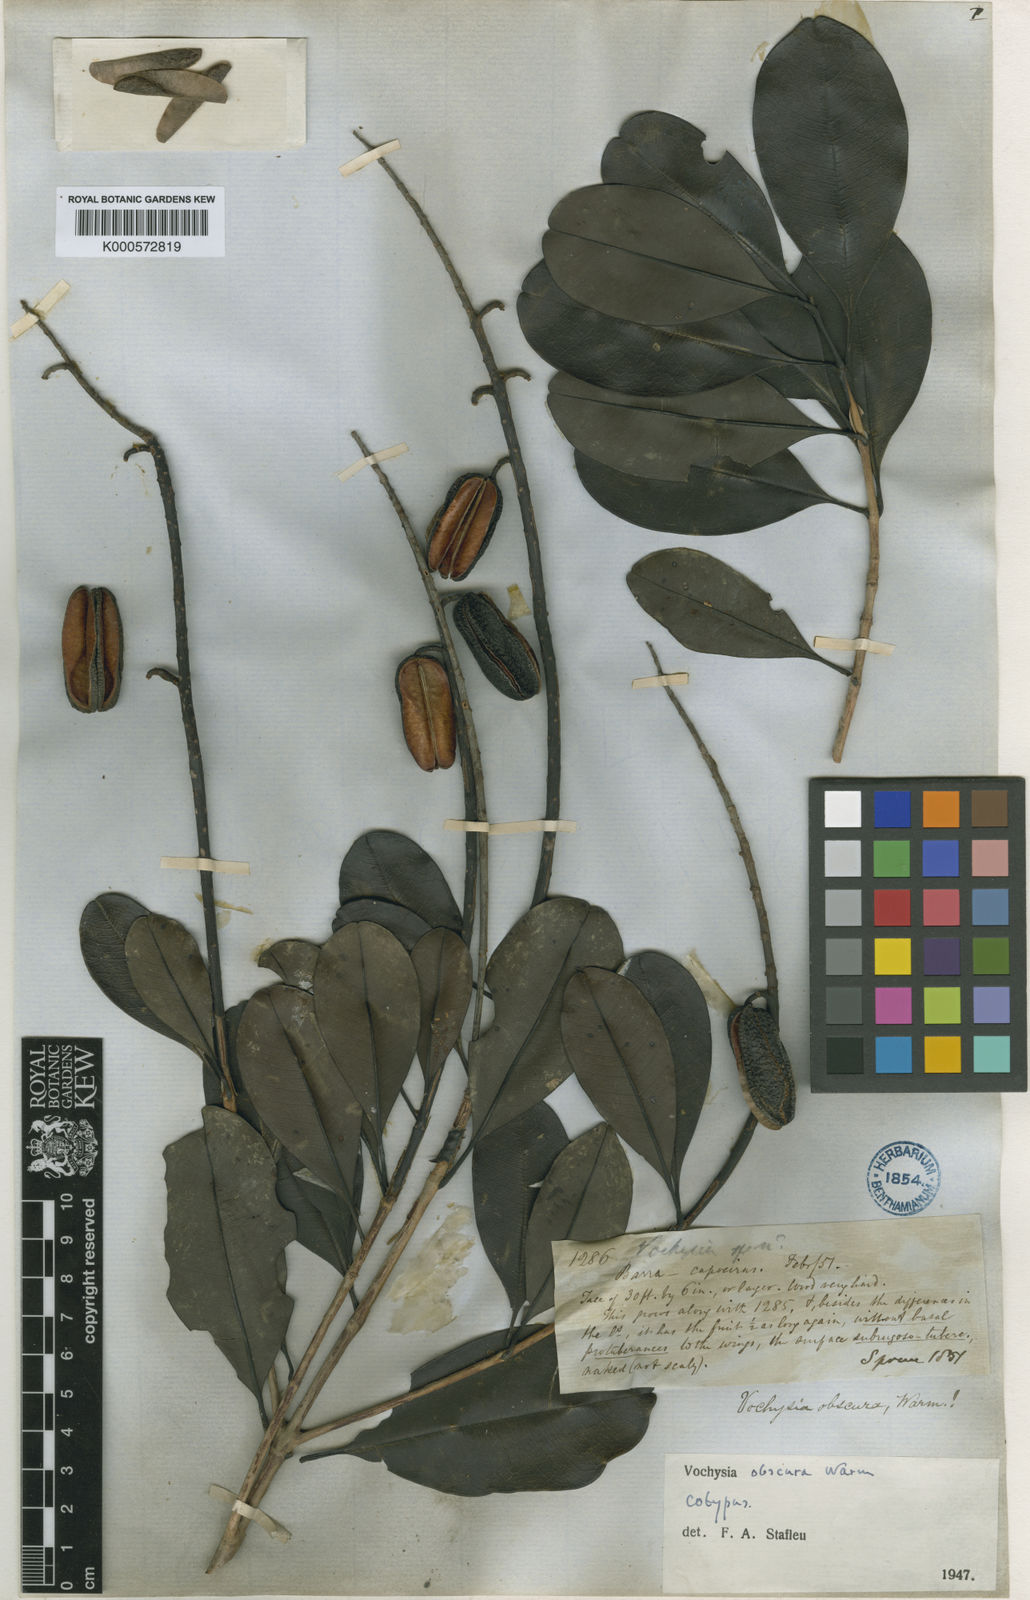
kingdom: Plantae
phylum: Tracheophyta
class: Magnoliopsida
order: Myrtales
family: Vochysiaceae
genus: Vochysia
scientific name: Vochysia obscura
